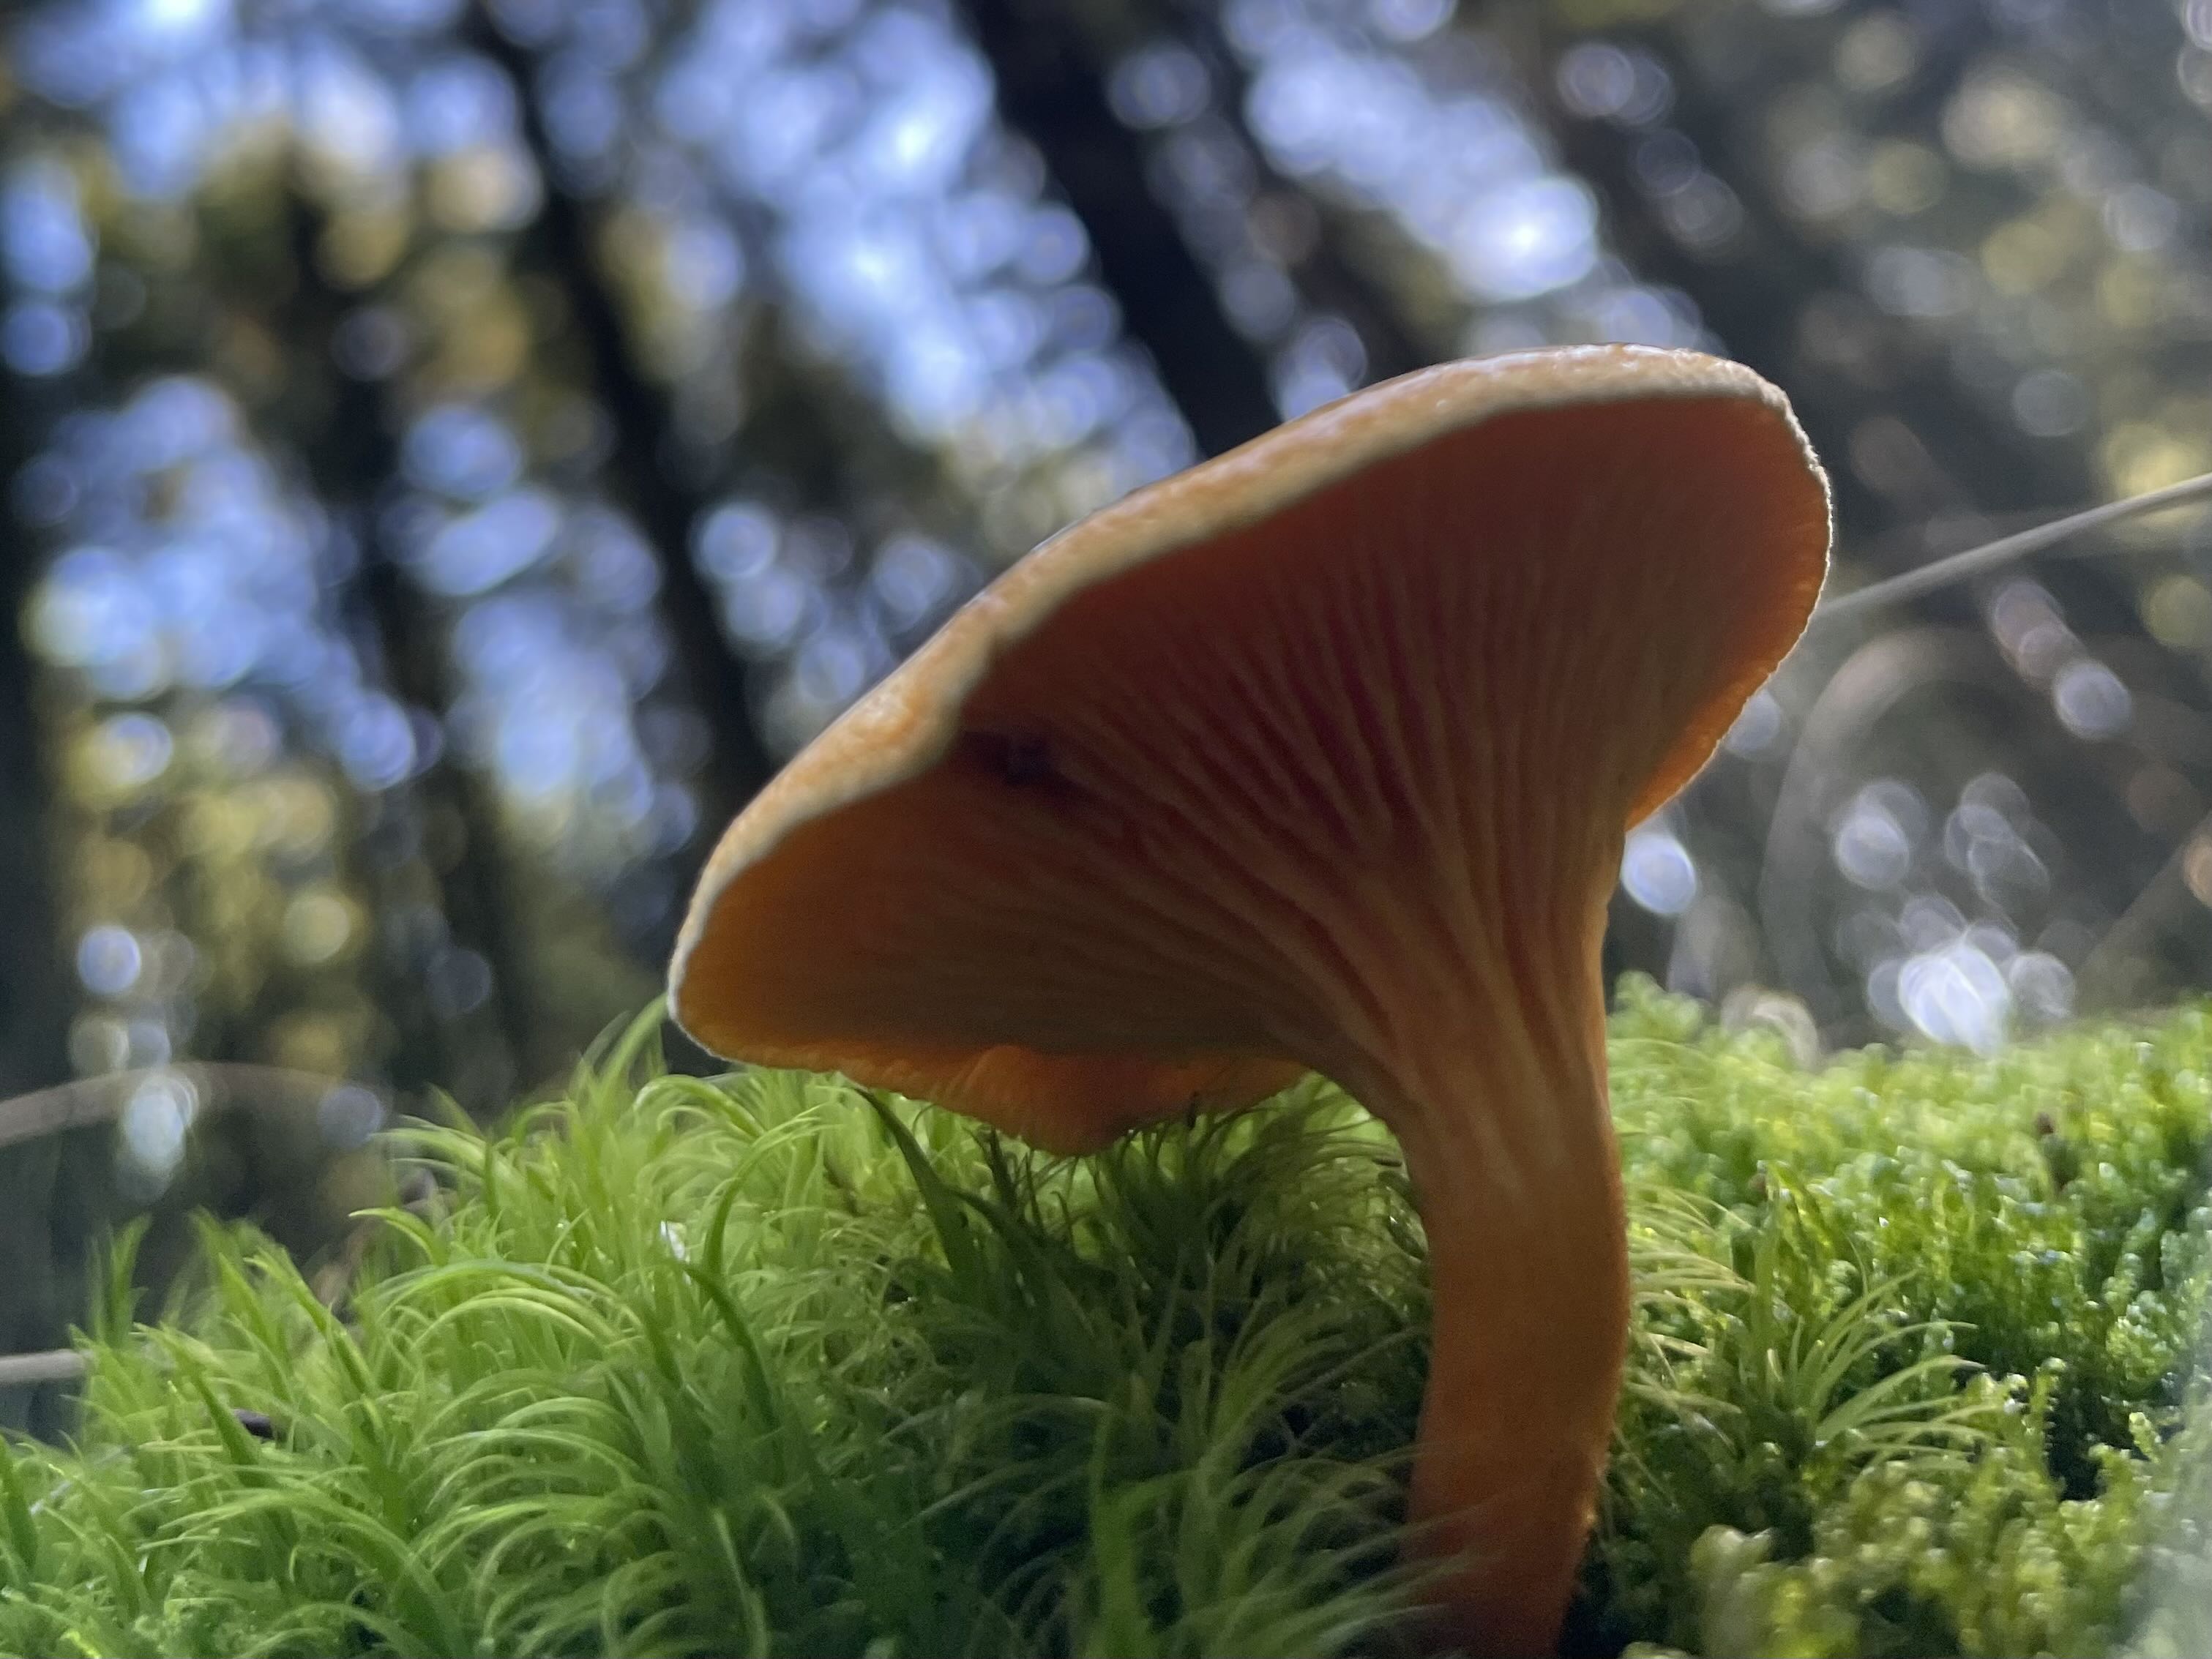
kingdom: Fungi
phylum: Basidiomycota
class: Agaricomycetes
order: Boletales
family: Hygrophoropsidaceae
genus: Hygrophoropsis
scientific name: Hygrophoropsis aurantiaca
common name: almindelig orangekantarel
